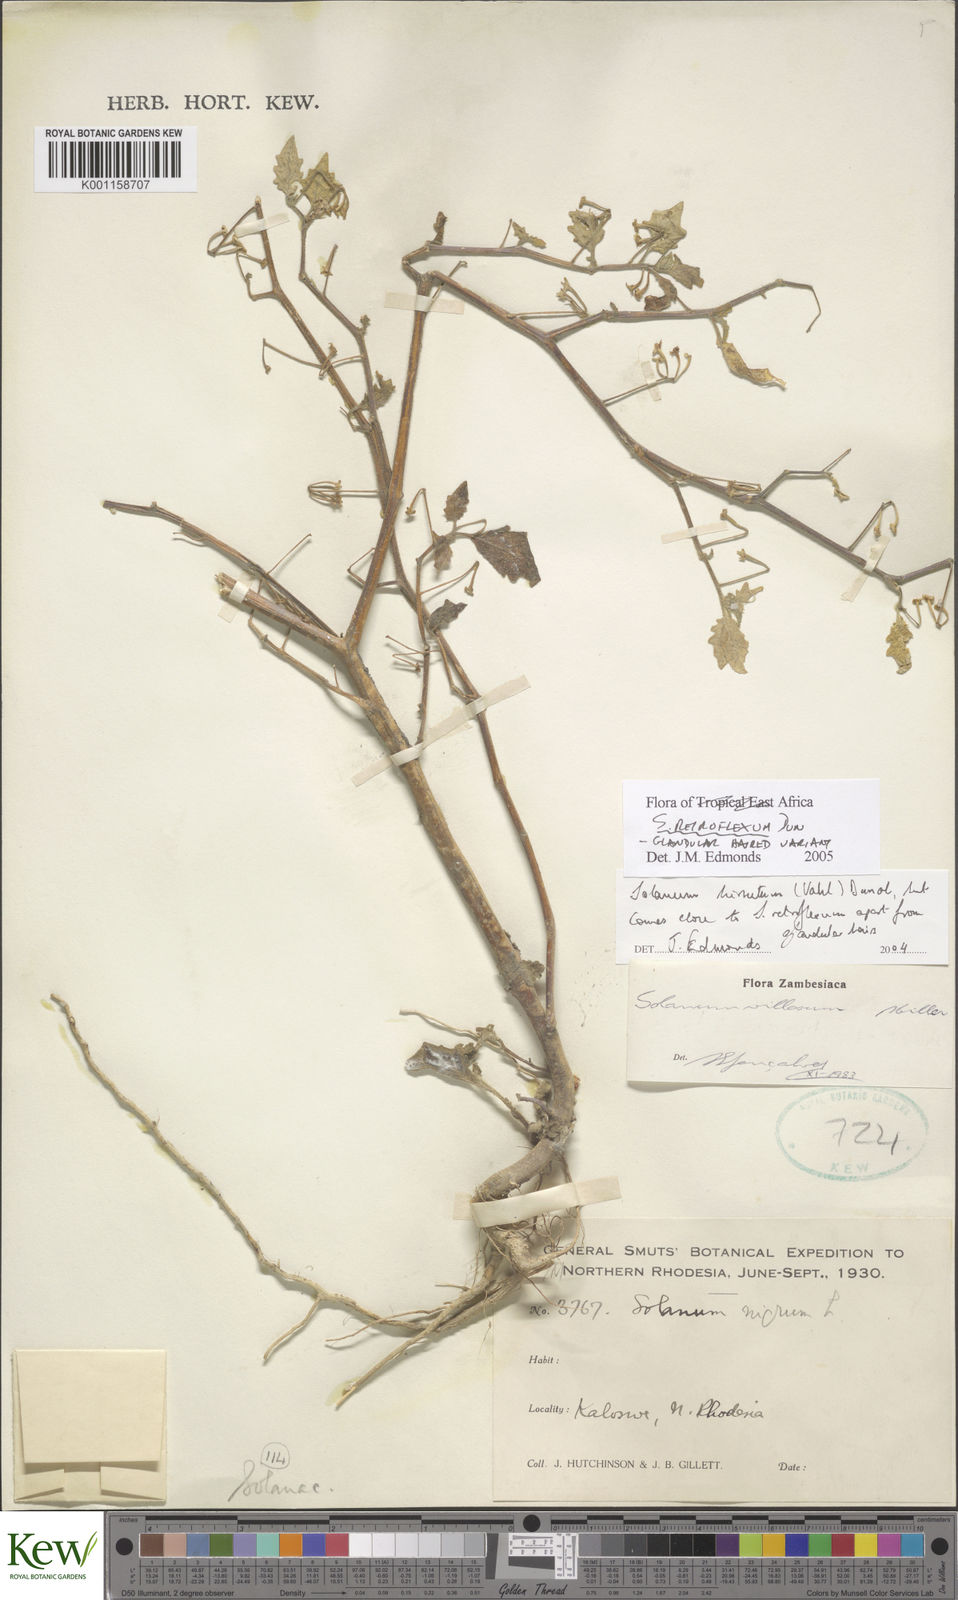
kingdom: Plantae
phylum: Tracheophyta
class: Magnoliopsida
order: Solanales
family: Solanaceae
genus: Solanum
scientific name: Solanum retroflexum
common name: Wonderberry
